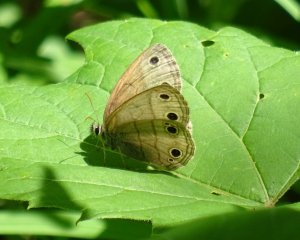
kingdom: Animalia
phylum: Arthropoda
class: Insecta
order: Lepidoptera
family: Nymphalidae
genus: Euptychia
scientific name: Euptychia cymela
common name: Little Wood Satyr
